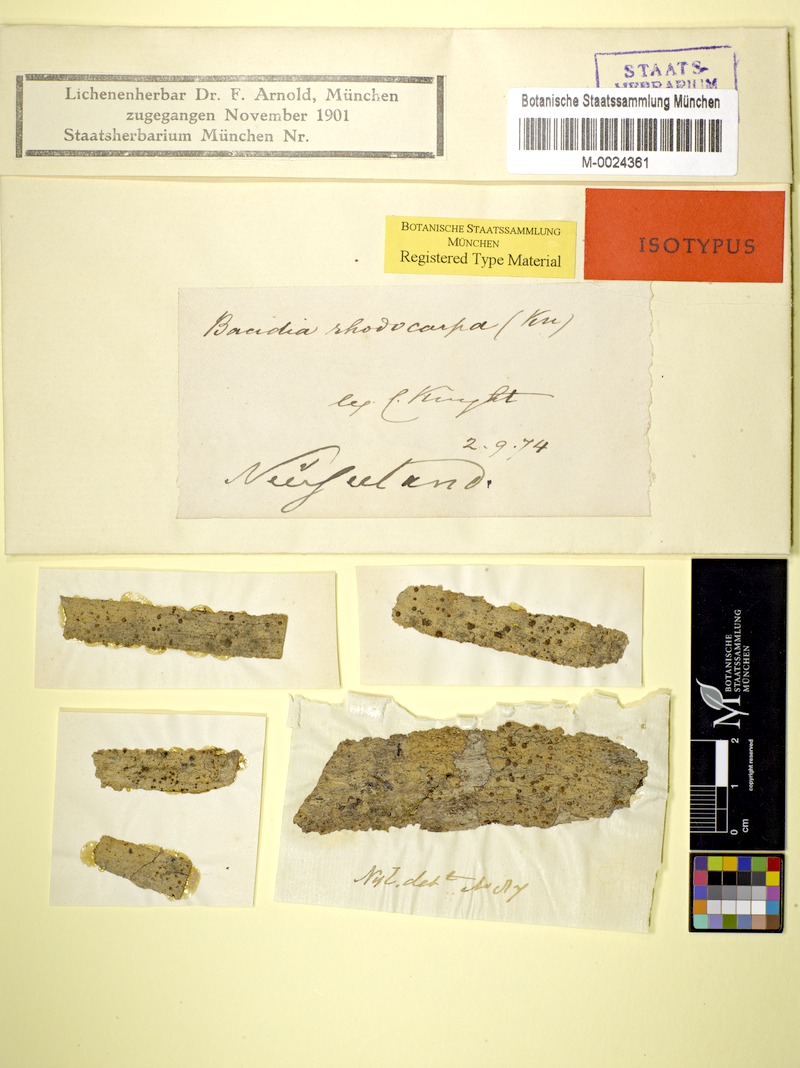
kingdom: Fungi
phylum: Ascomycota
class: Lecanoromycetes
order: Lecanorales
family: Ramalinaceae
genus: Bacidia
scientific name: Bacidia
